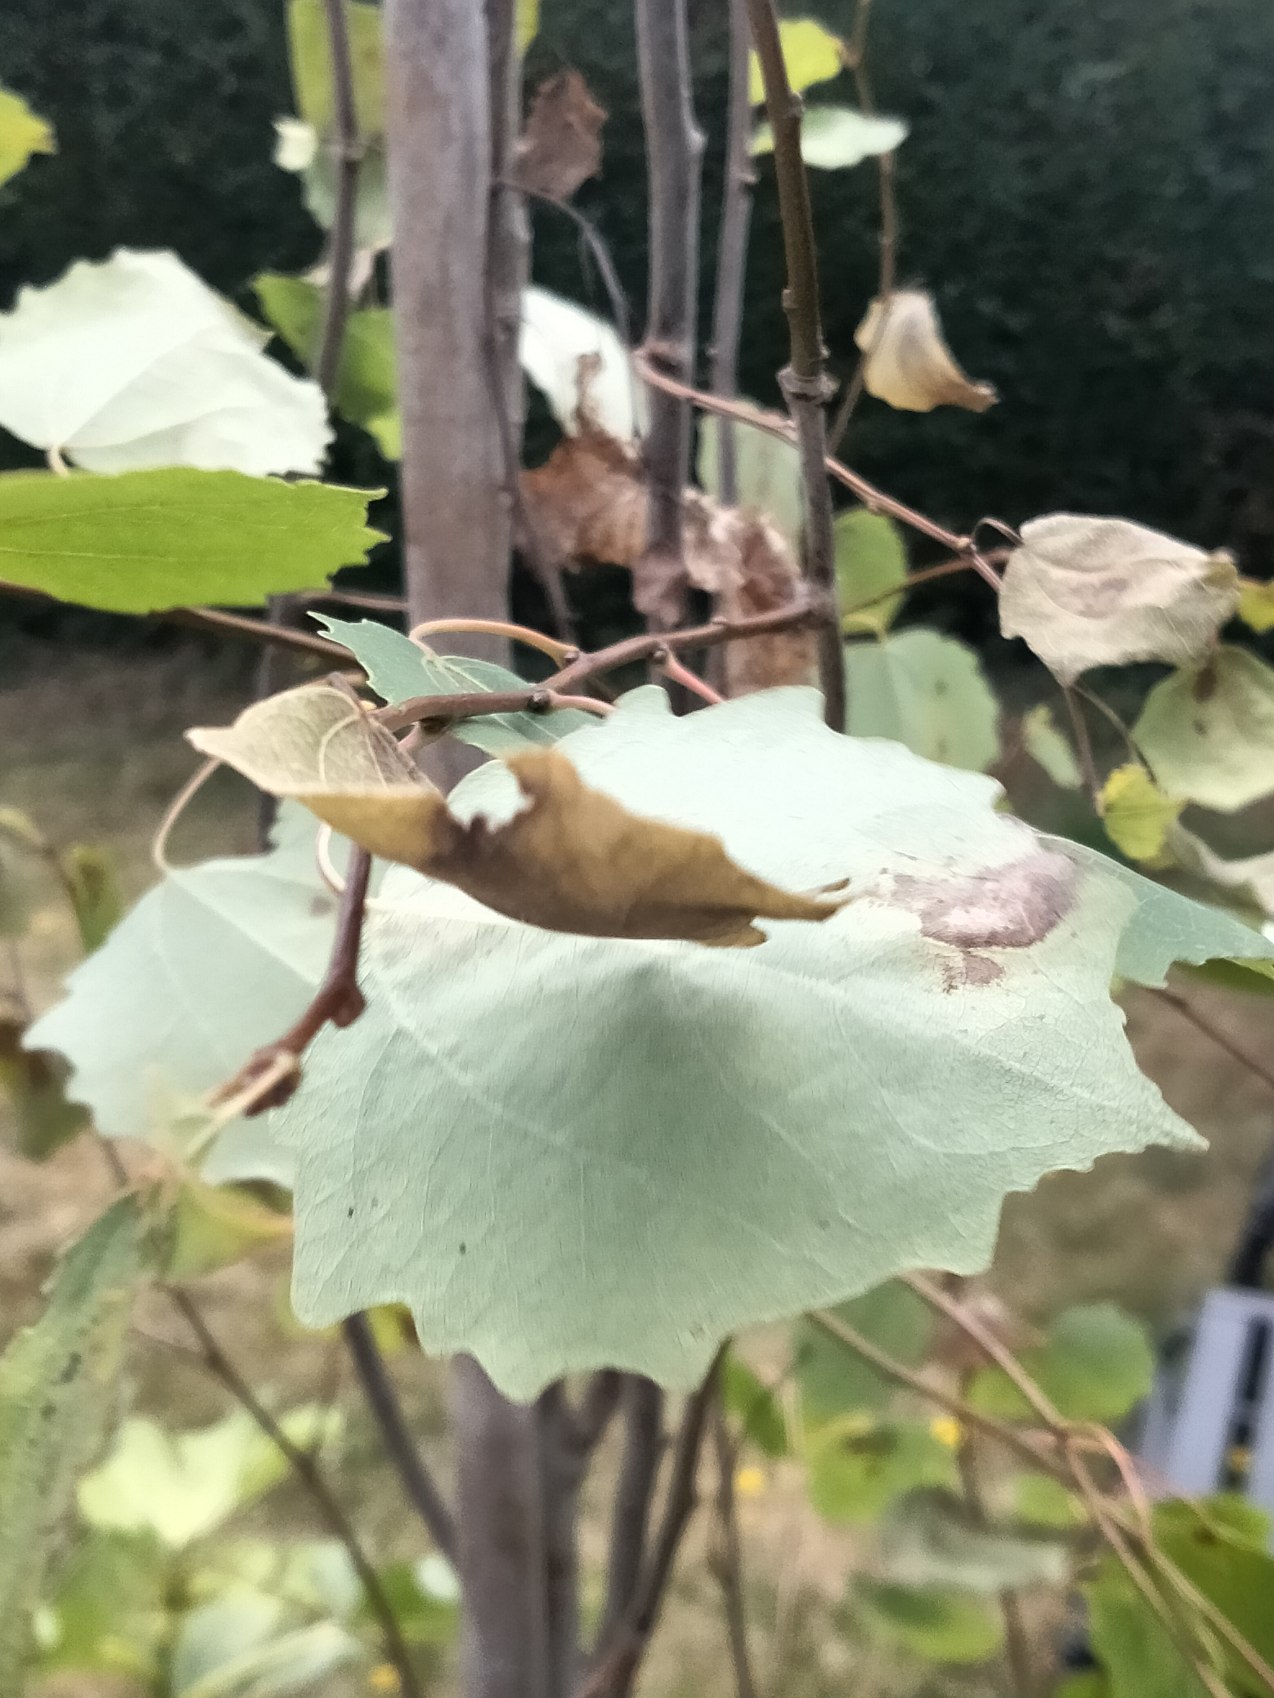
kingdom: Plantae
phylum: Tracheophyta
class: Magnoliopsida
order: Malpighiales
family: Salicaceae
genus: Populus
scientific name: Populus tremula
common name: Bævreasp
